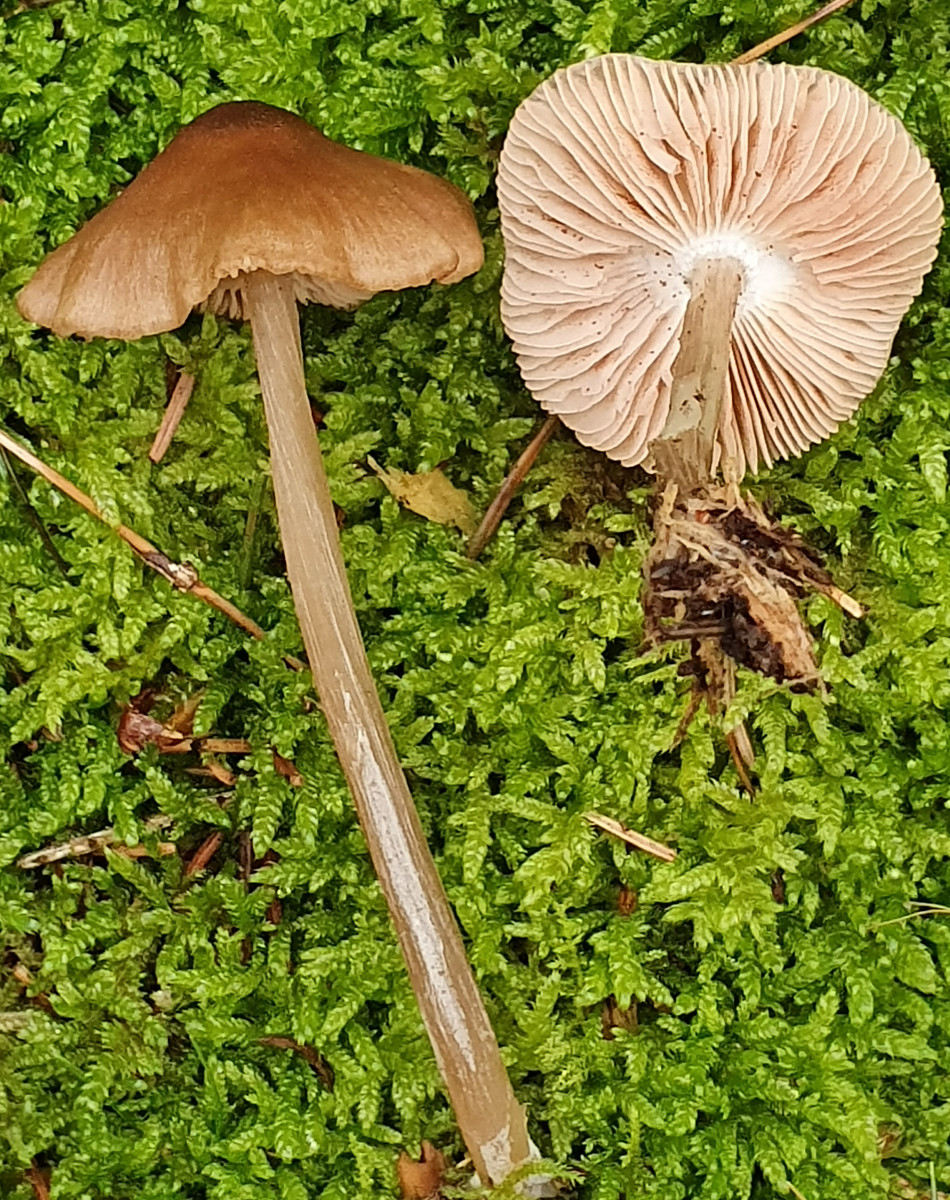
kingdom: Fungi
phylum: Basidiomycota
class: Agaricomycetes
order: Agaricales
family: Entolomataceae
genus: Entoloma
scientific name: Entoloma cetratum
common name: voks-rødblad
